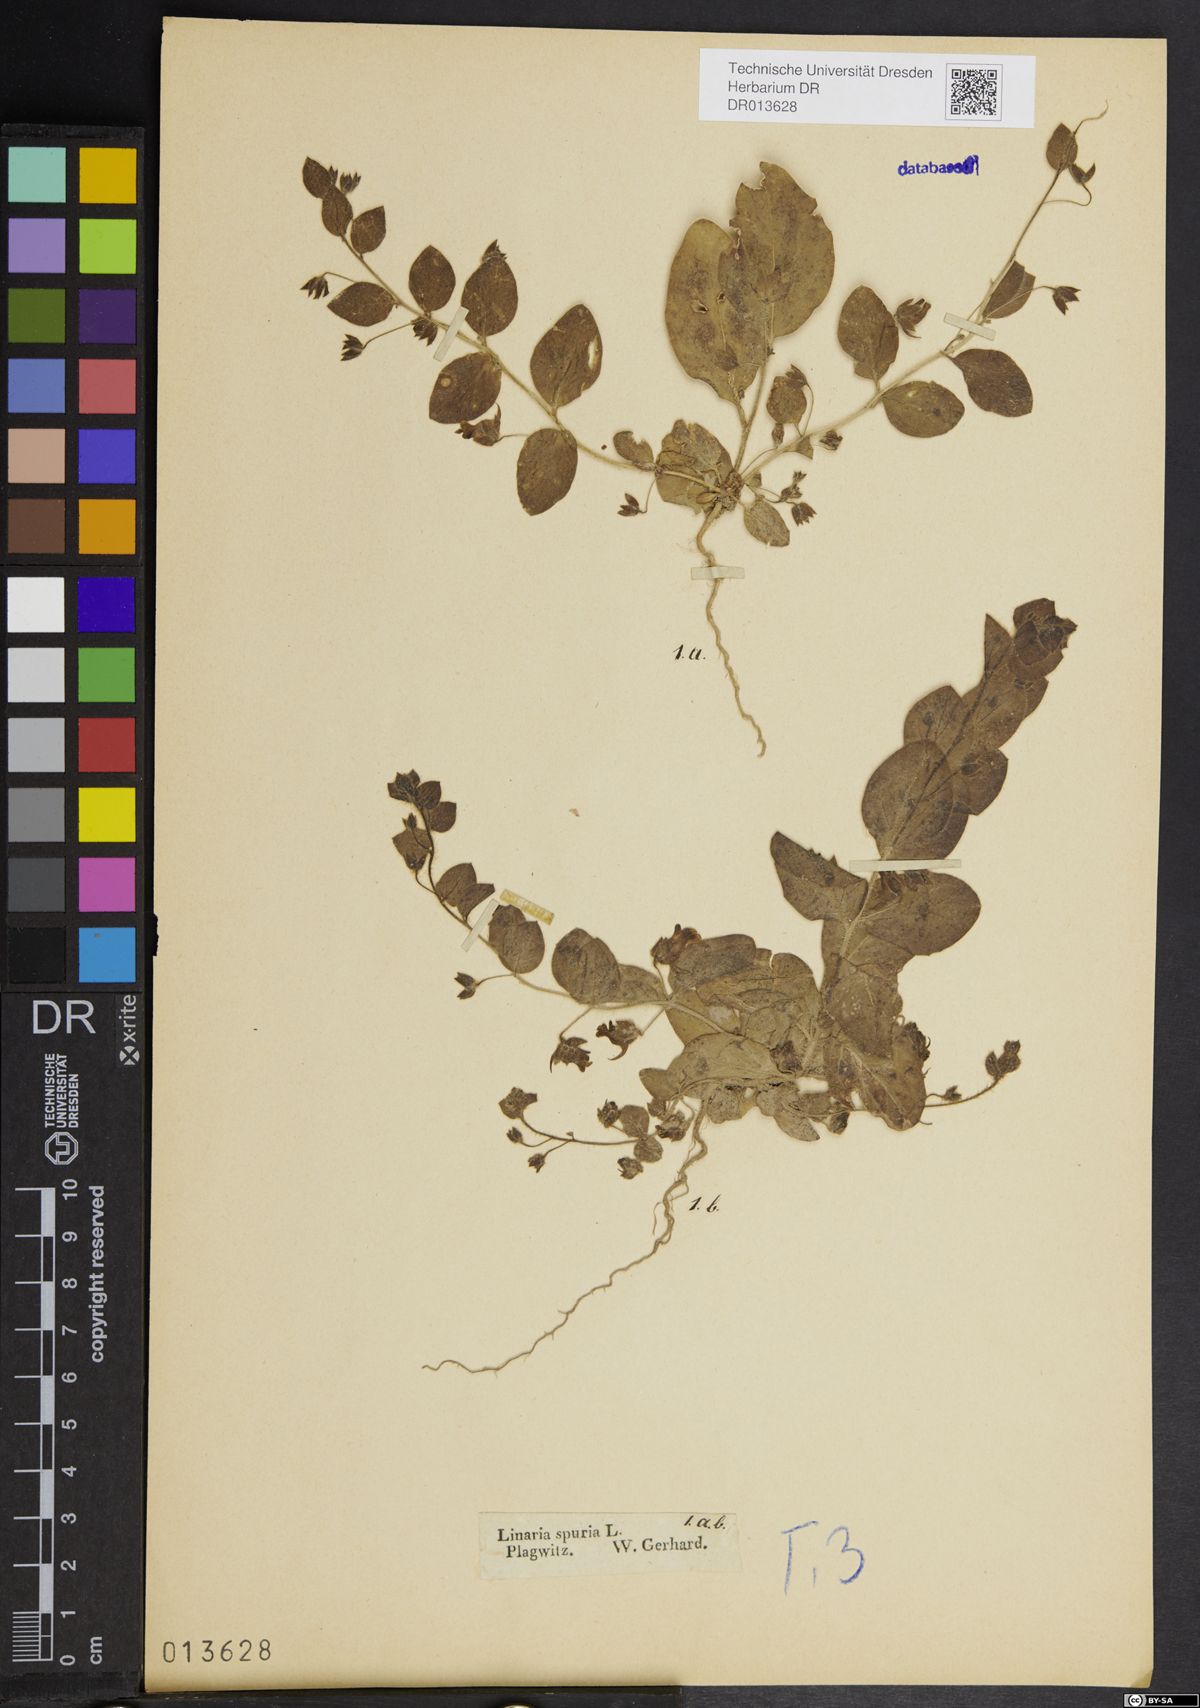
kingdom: Plantae
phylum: Tracheophyta
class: Magnoliopsida
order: Lamiales
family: Plantaginaceae
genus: Kickxia
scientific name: Kickxia spuria
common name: Round-leaved fluellen
